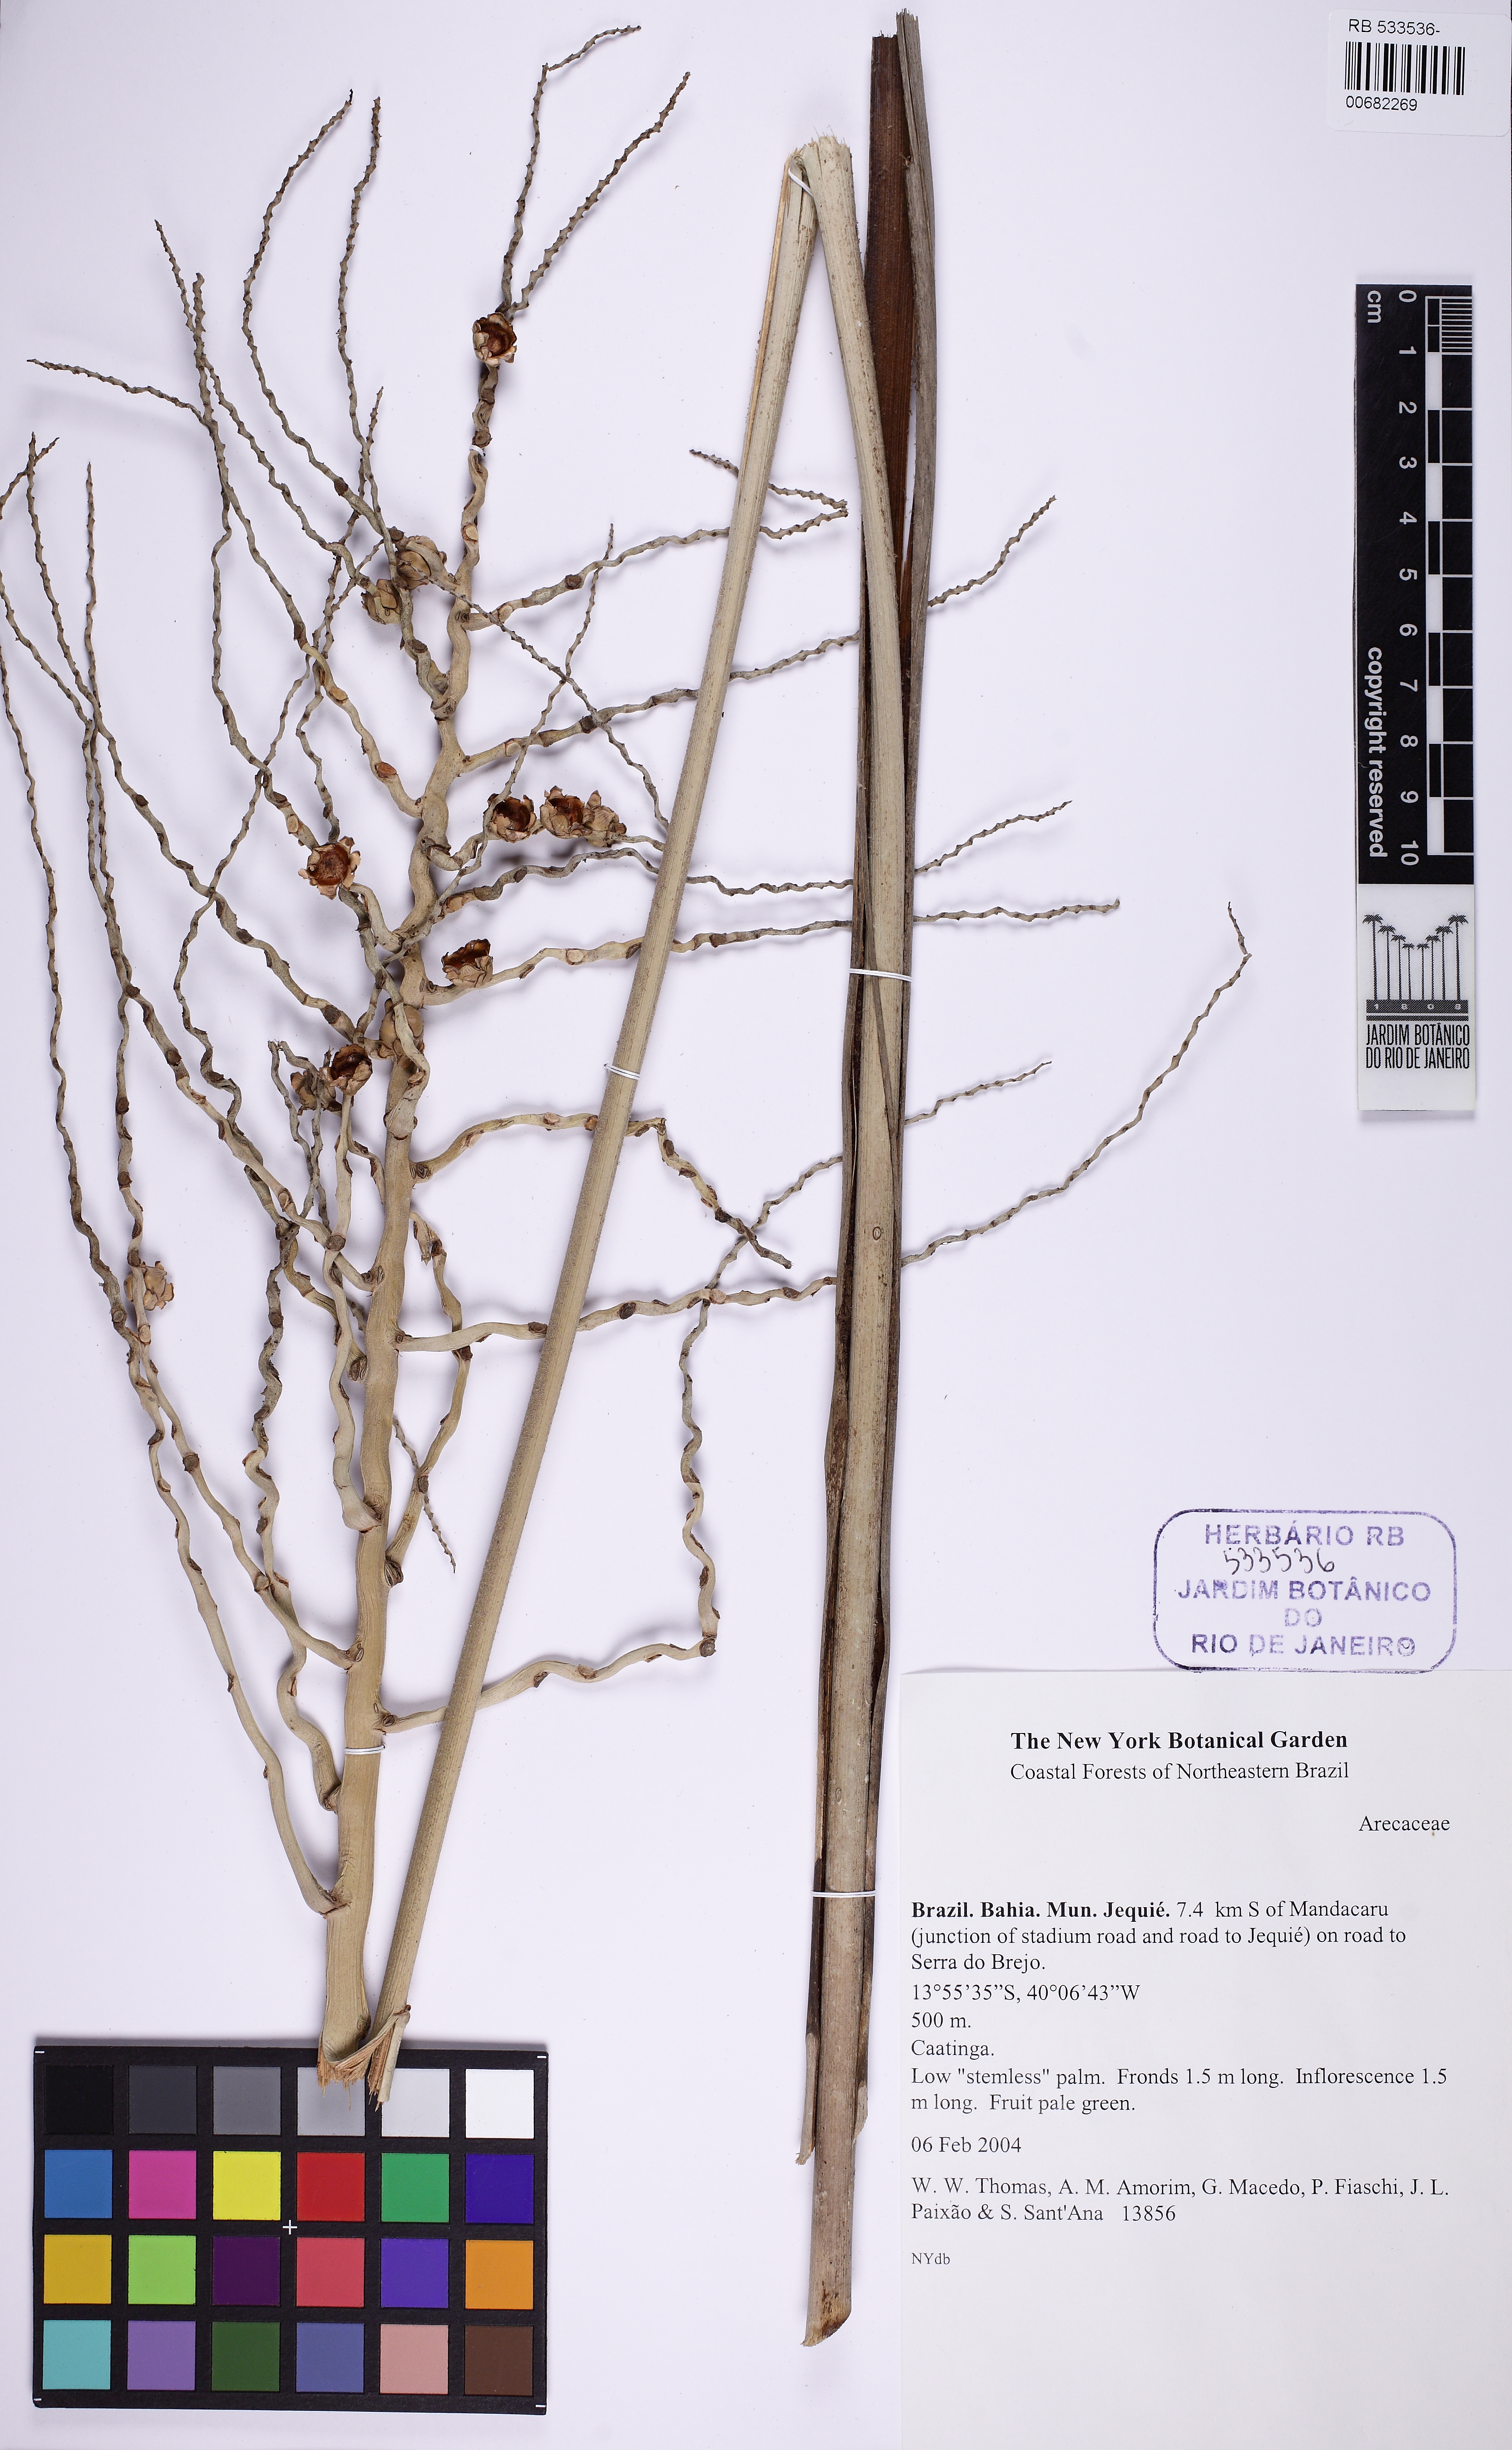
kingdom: Plantae
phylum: Tracheophyta
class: Liliopsida
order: Arecales
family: Arecaceae
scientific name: Arecaceae
